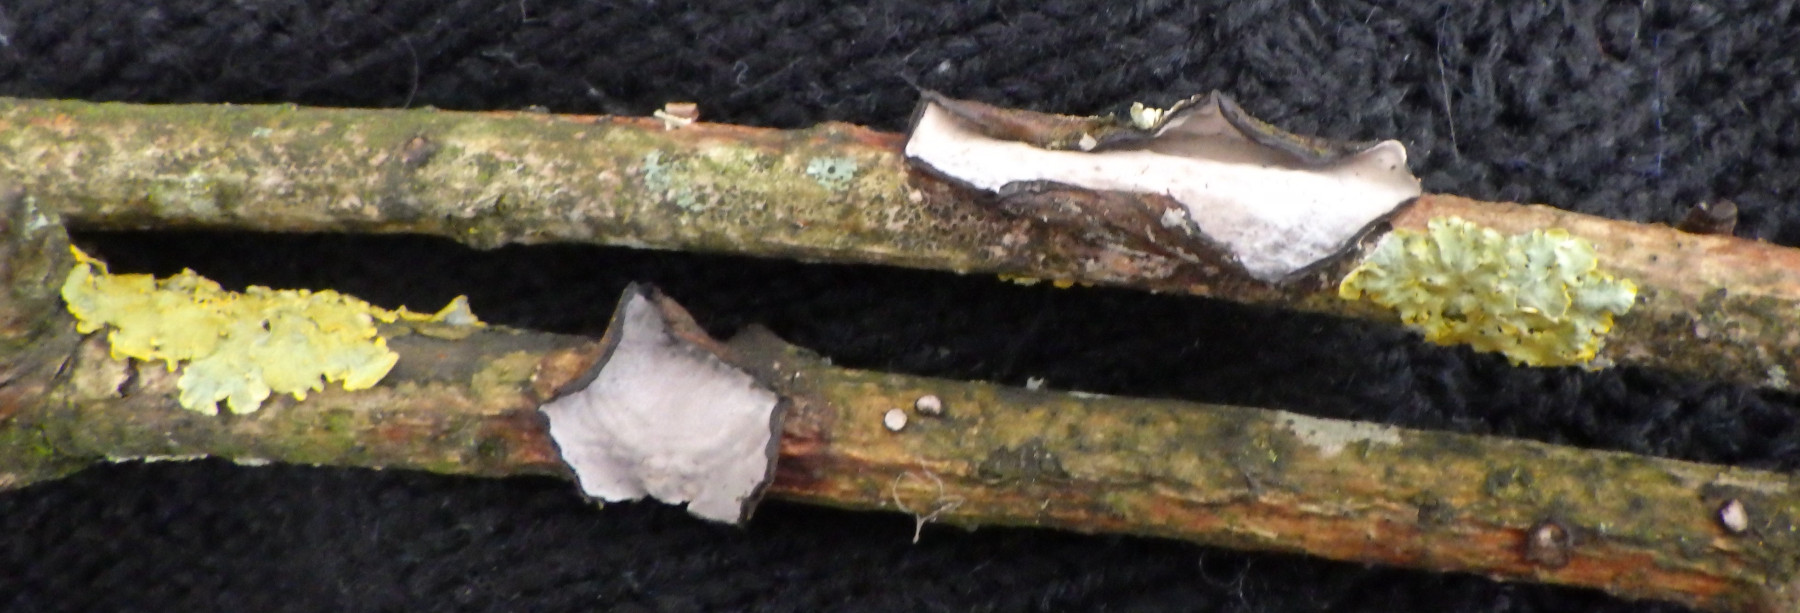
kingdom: Fungi
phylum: Basidiomycota
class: Agaricomycetes
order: Russulales
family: Peniophoraceae
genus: Peniophora
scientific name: Peniophora quercina
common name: ege-voksskind
